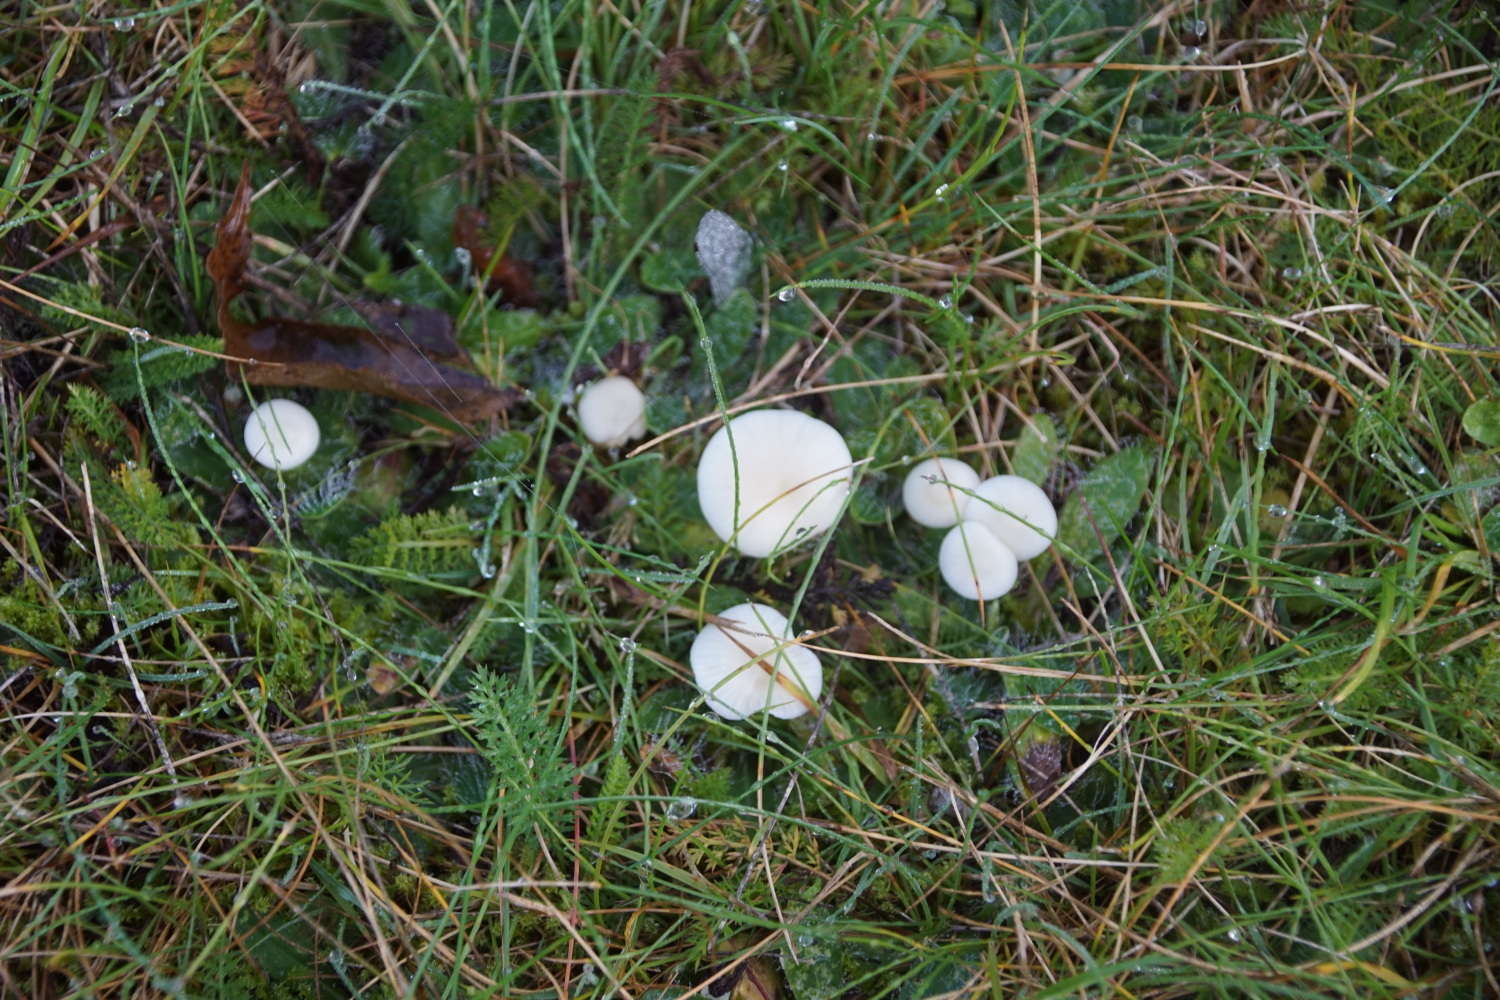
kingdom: Fungi
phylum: Basidiomycota
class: Agaricomycetes
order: Agaricales
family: Hygrophoraceae
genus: Cuphophyllus
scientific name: Cuphophyllus virgineus
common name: snehvid vokshat
